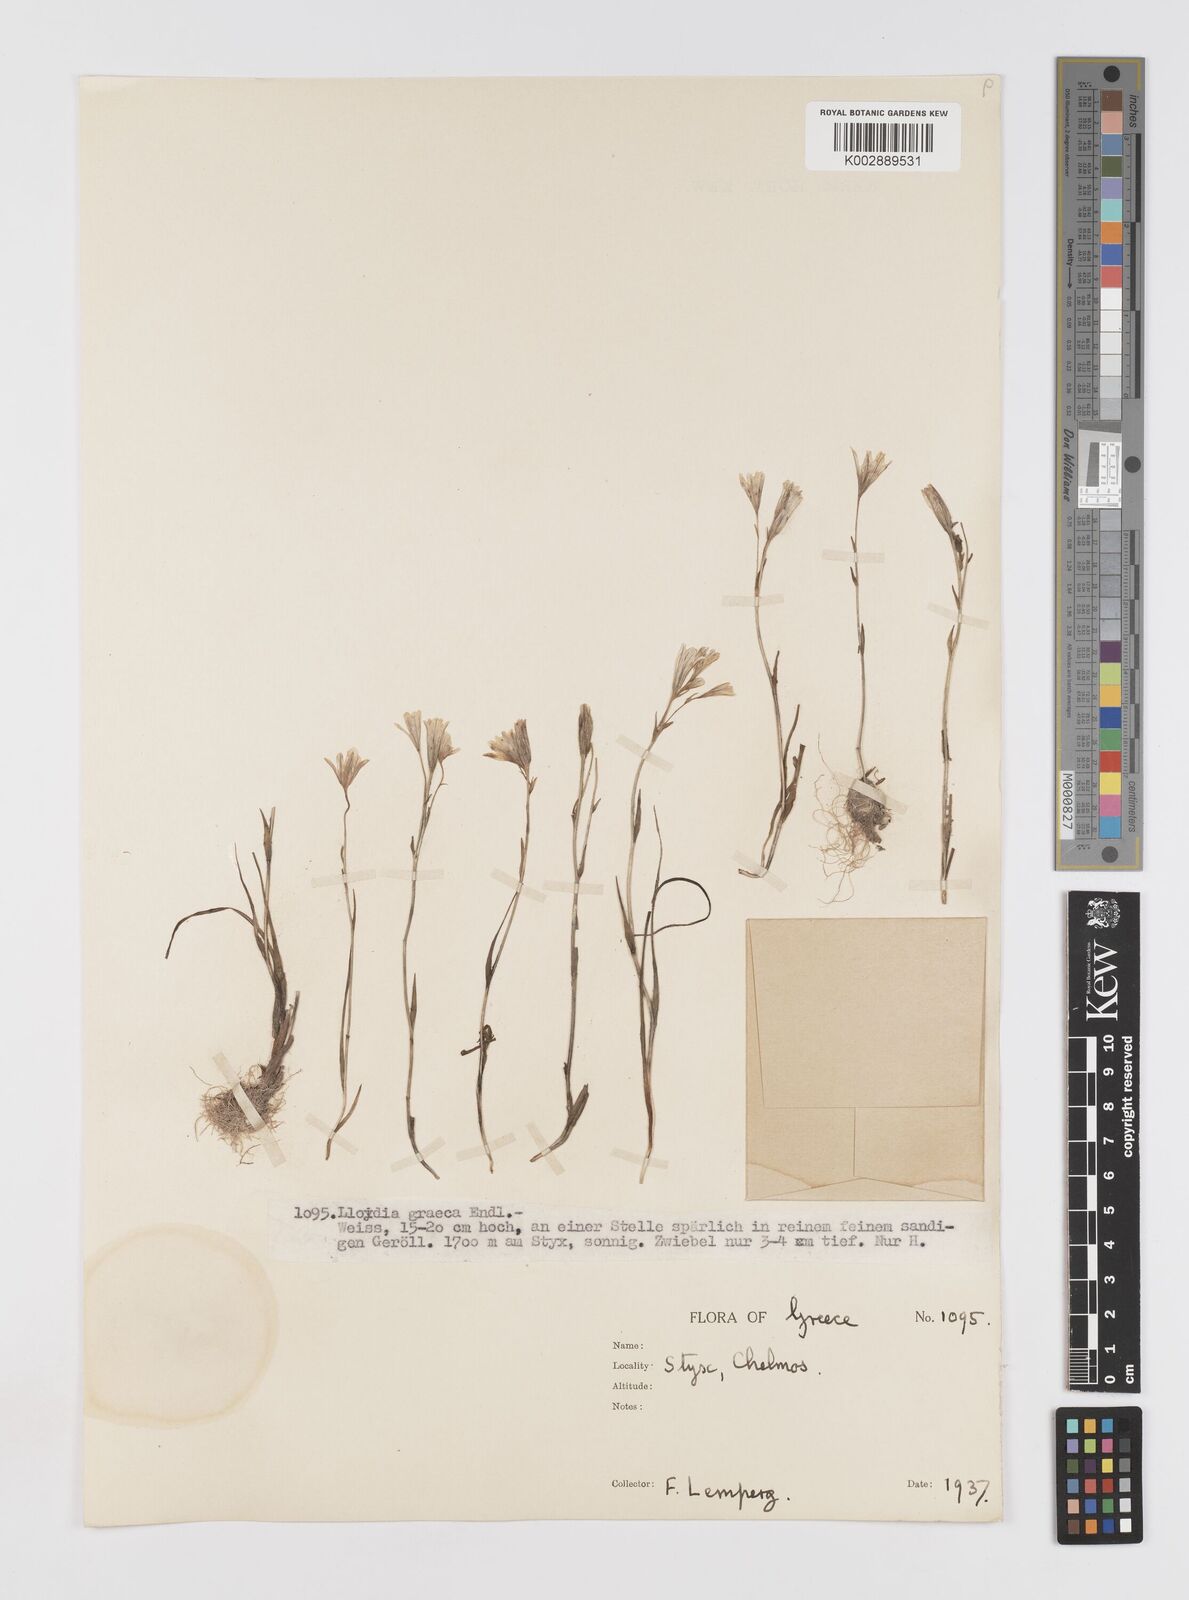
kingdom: Plantae
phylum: Tracheophyta
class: Liliopsida
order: Liliales
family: Liliaceae
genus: Gagea
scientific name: Gagea graeca
